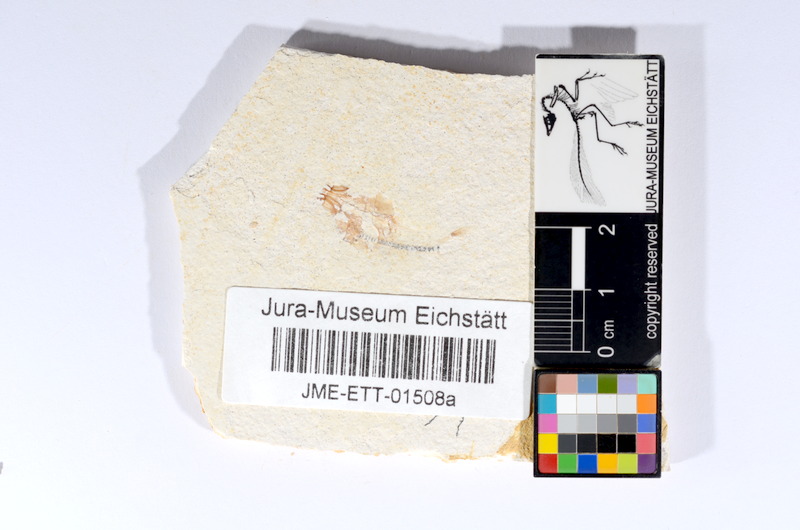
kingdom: Animalia
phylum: Chordata
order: Salmoniformes
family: Orthogonikleithridae
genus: Orthogonikleithrus
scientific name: Orthogonikleithrus hoelli
